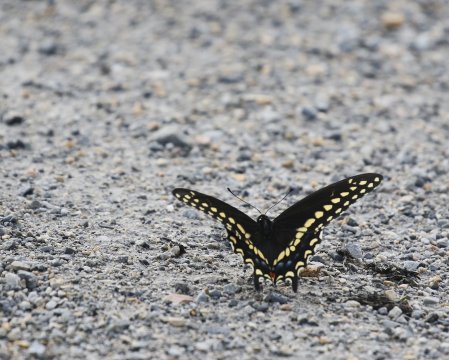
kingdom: Animalia
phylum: Arthropoda
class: Insecta
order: Lepidoptera
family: Papilionidae
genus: Papilio
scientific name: Papilio polyxenes
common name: Black Swallowtail
